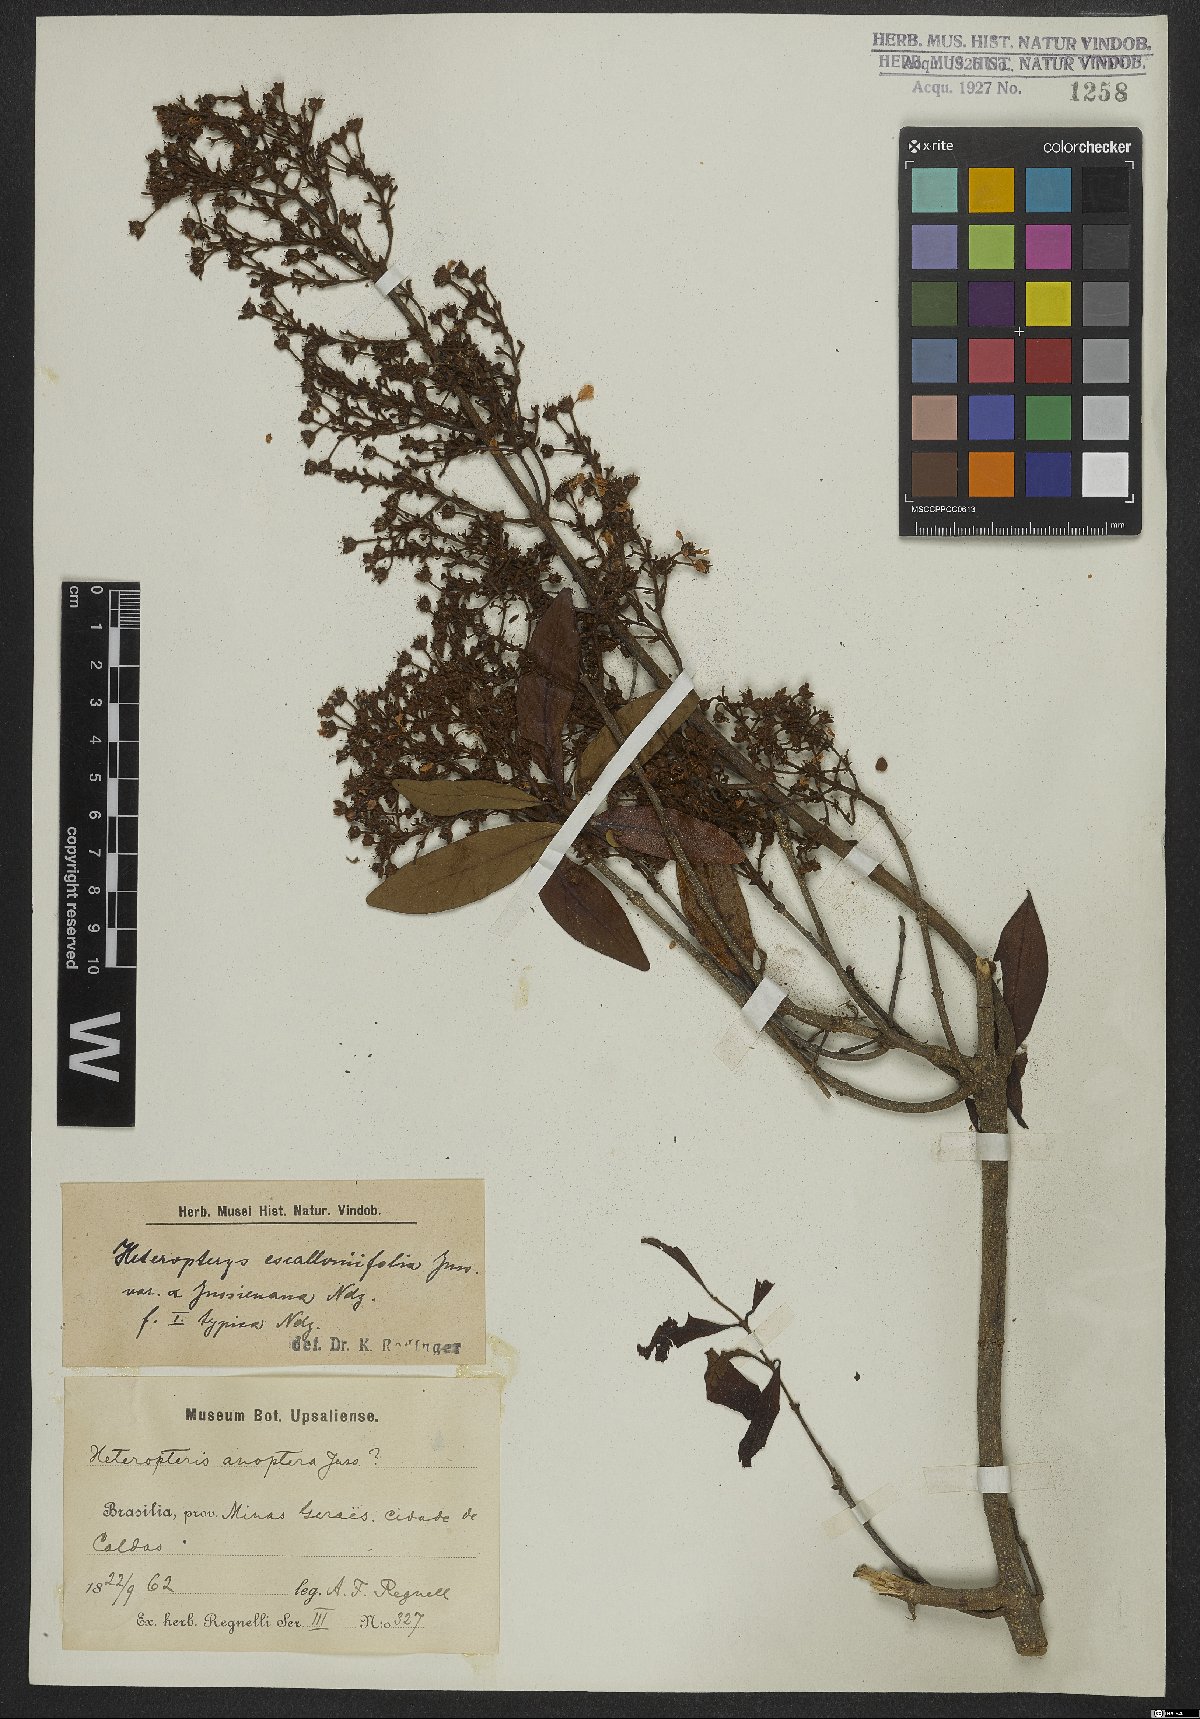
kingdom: Plantae
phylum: Tracheophyta
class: Magnoliopsida
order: Malpighiales
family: Malpighiaceae
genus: Heteropterys
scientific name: Heteropterys escalloniifolia
